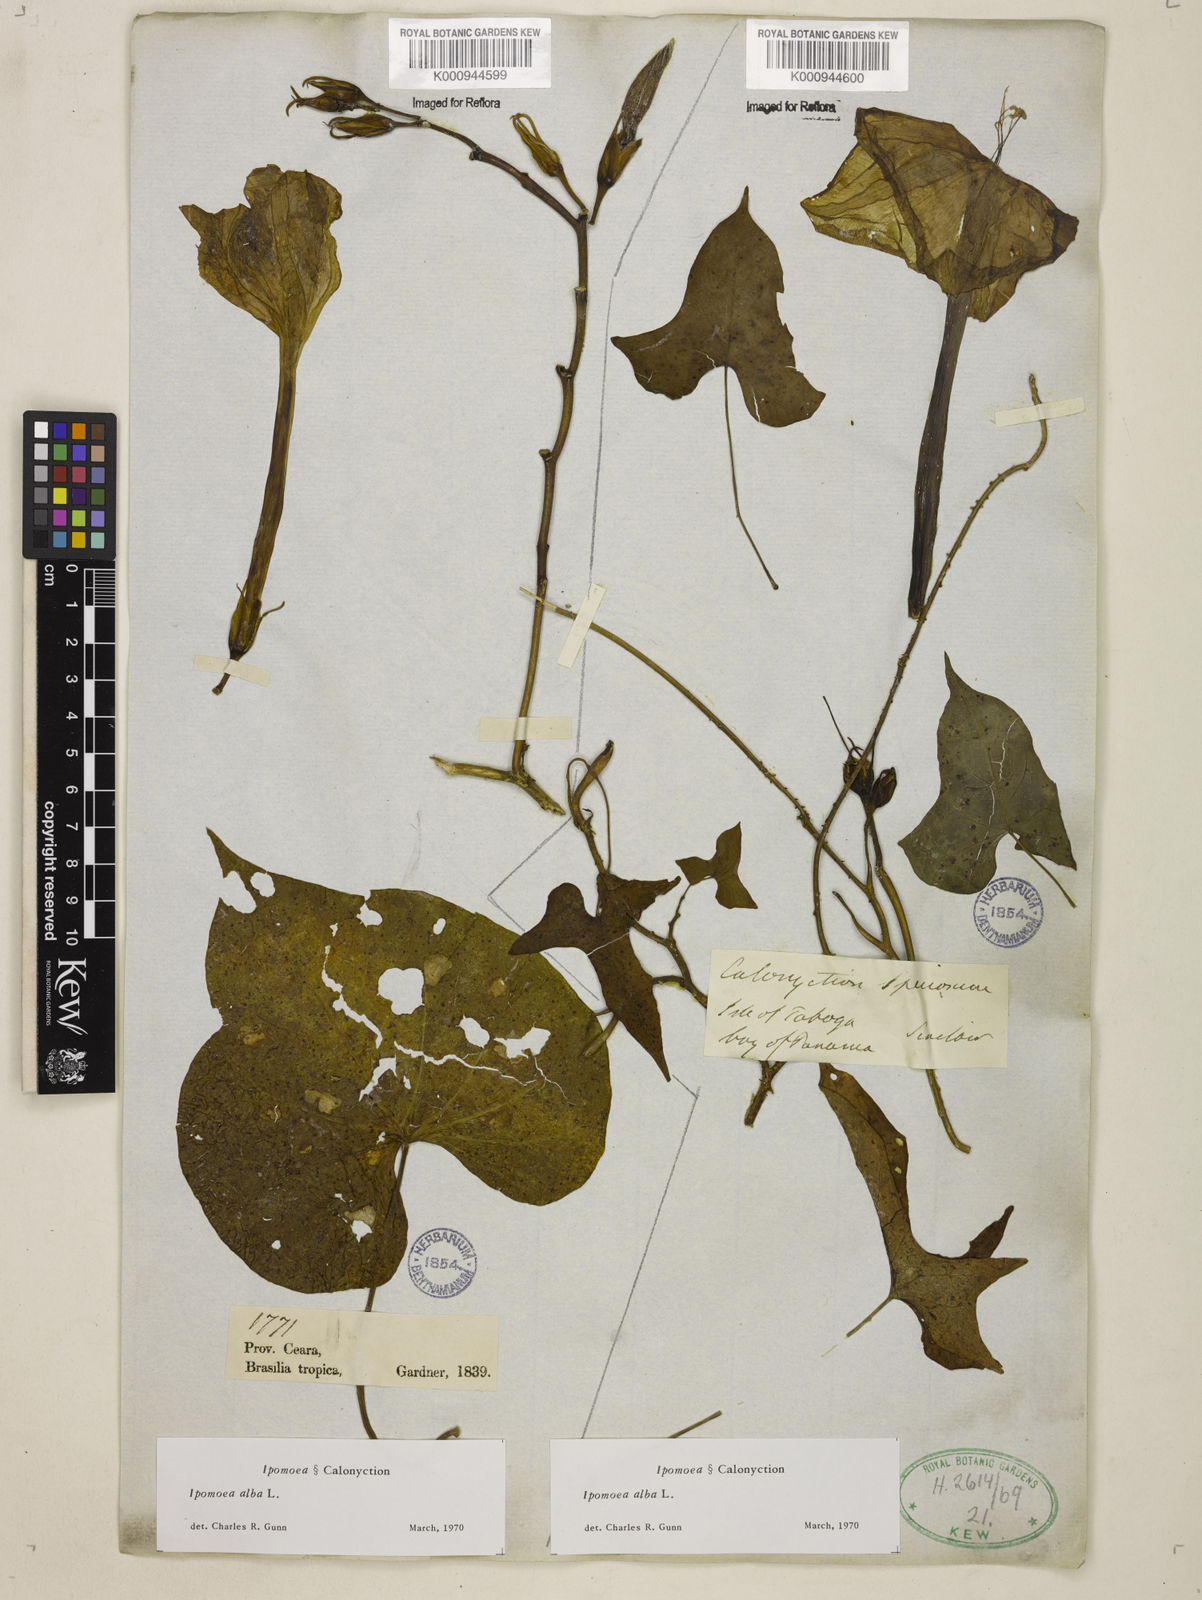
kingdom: Plantae
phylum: Tracheophyta
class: Magnoliopsida
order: Solanales
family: Convolvulaceae
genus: Ipomoea
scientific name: Ipomoea
